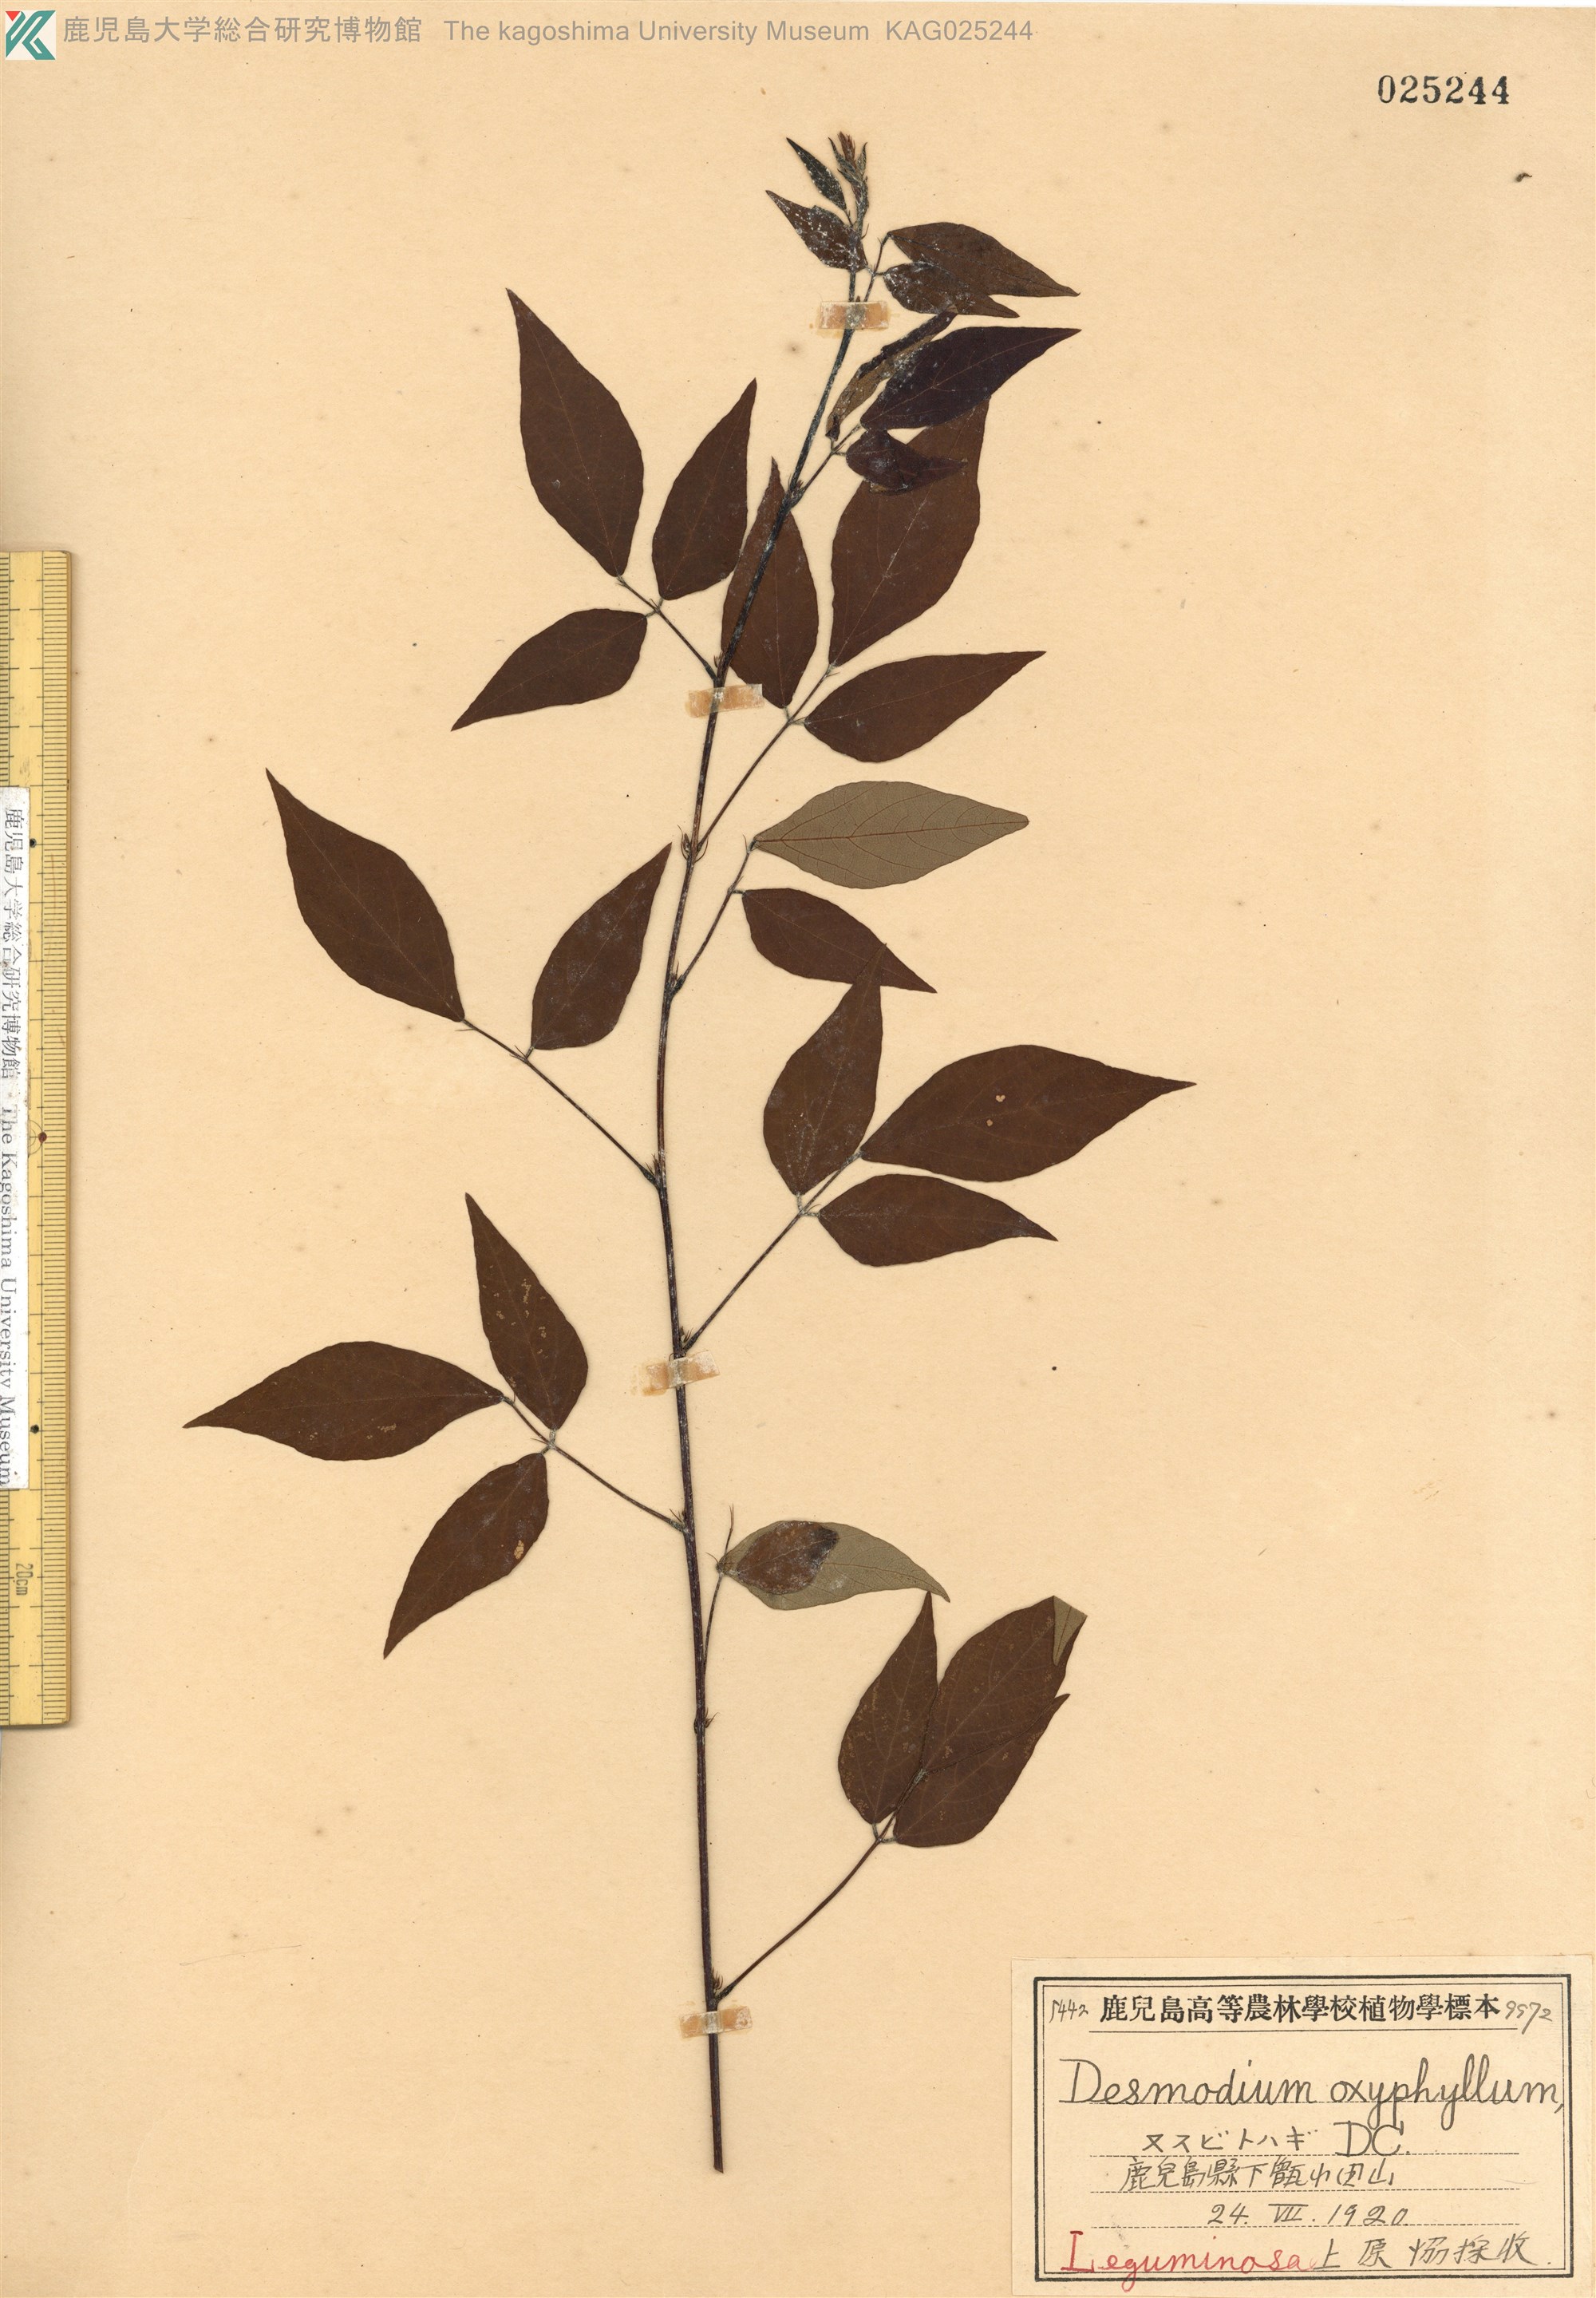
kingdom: Plantae
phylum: Tracheophyta
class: Magnoliopsida
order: Fabales
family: Fabaceae
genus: Hylodesmum
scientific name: Hylodesmum podocarpum
